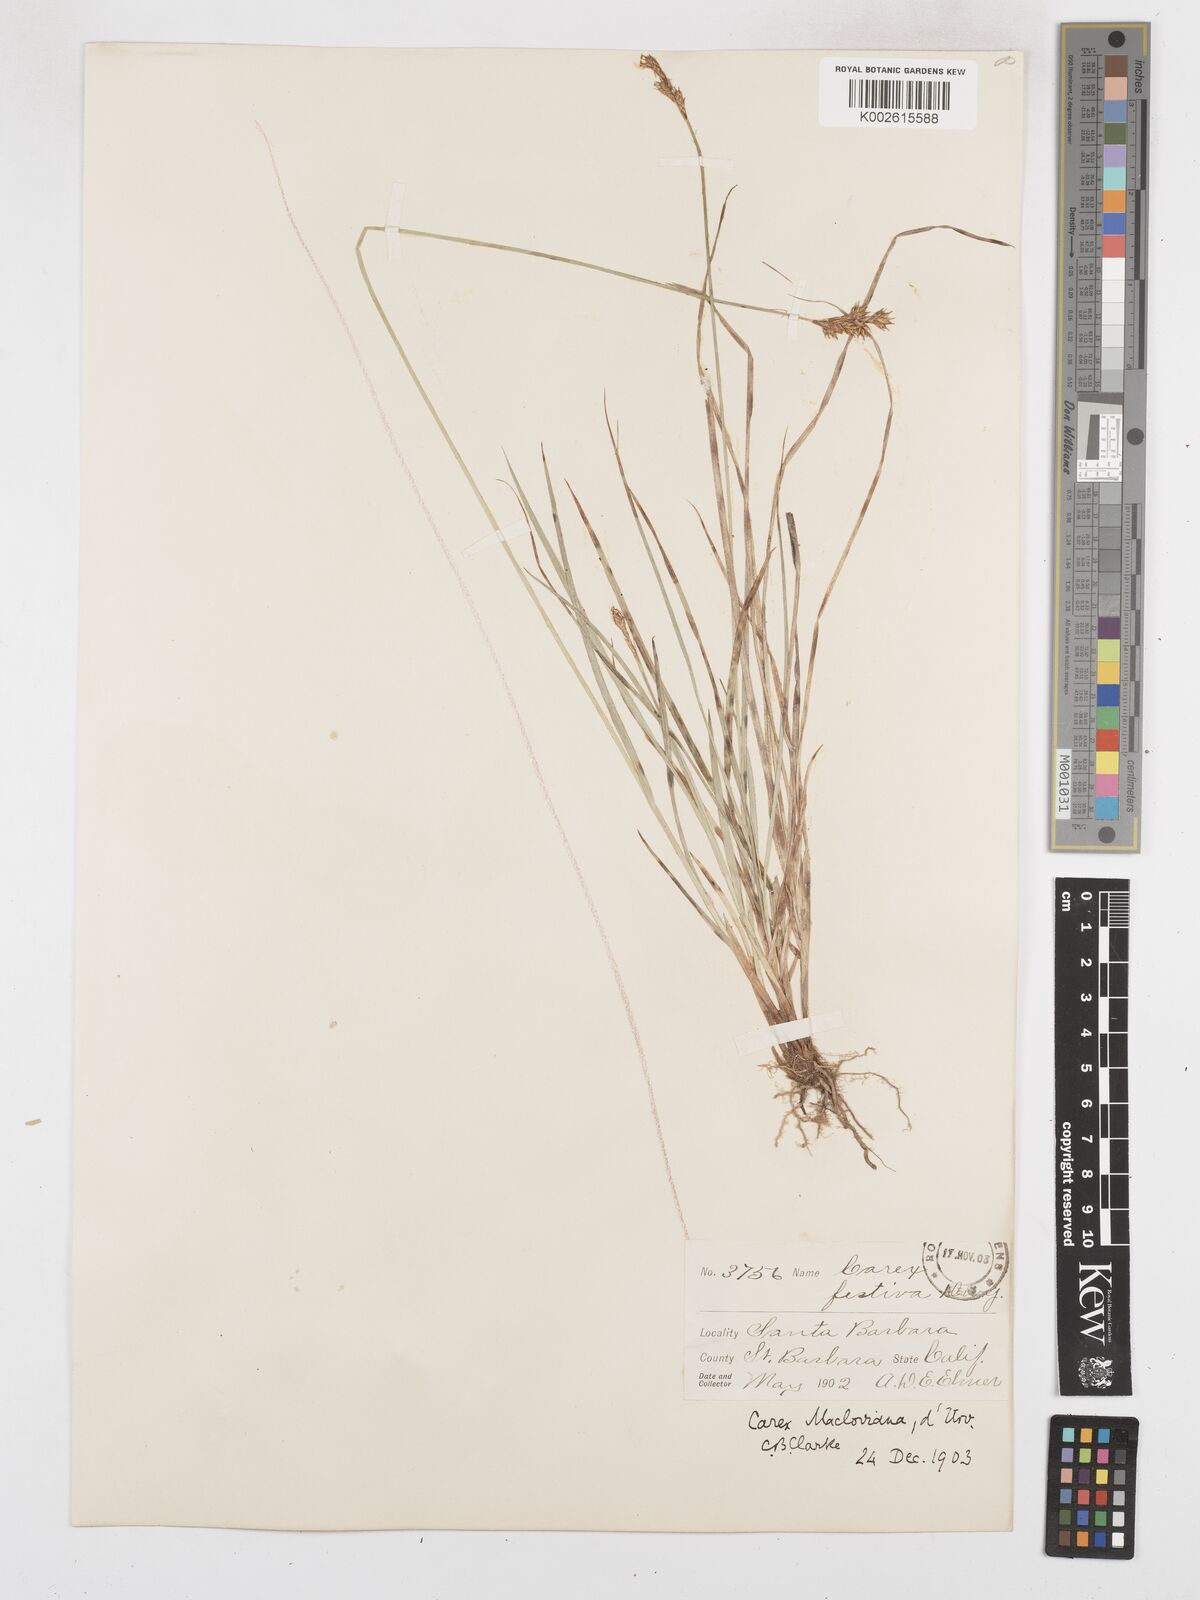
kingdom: Plantae
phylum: Tracheophyta
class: Liliopsida
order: Poales
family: Cyperaceae
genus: Carex
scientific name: Carex macloviana
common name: Falkland island sedge
